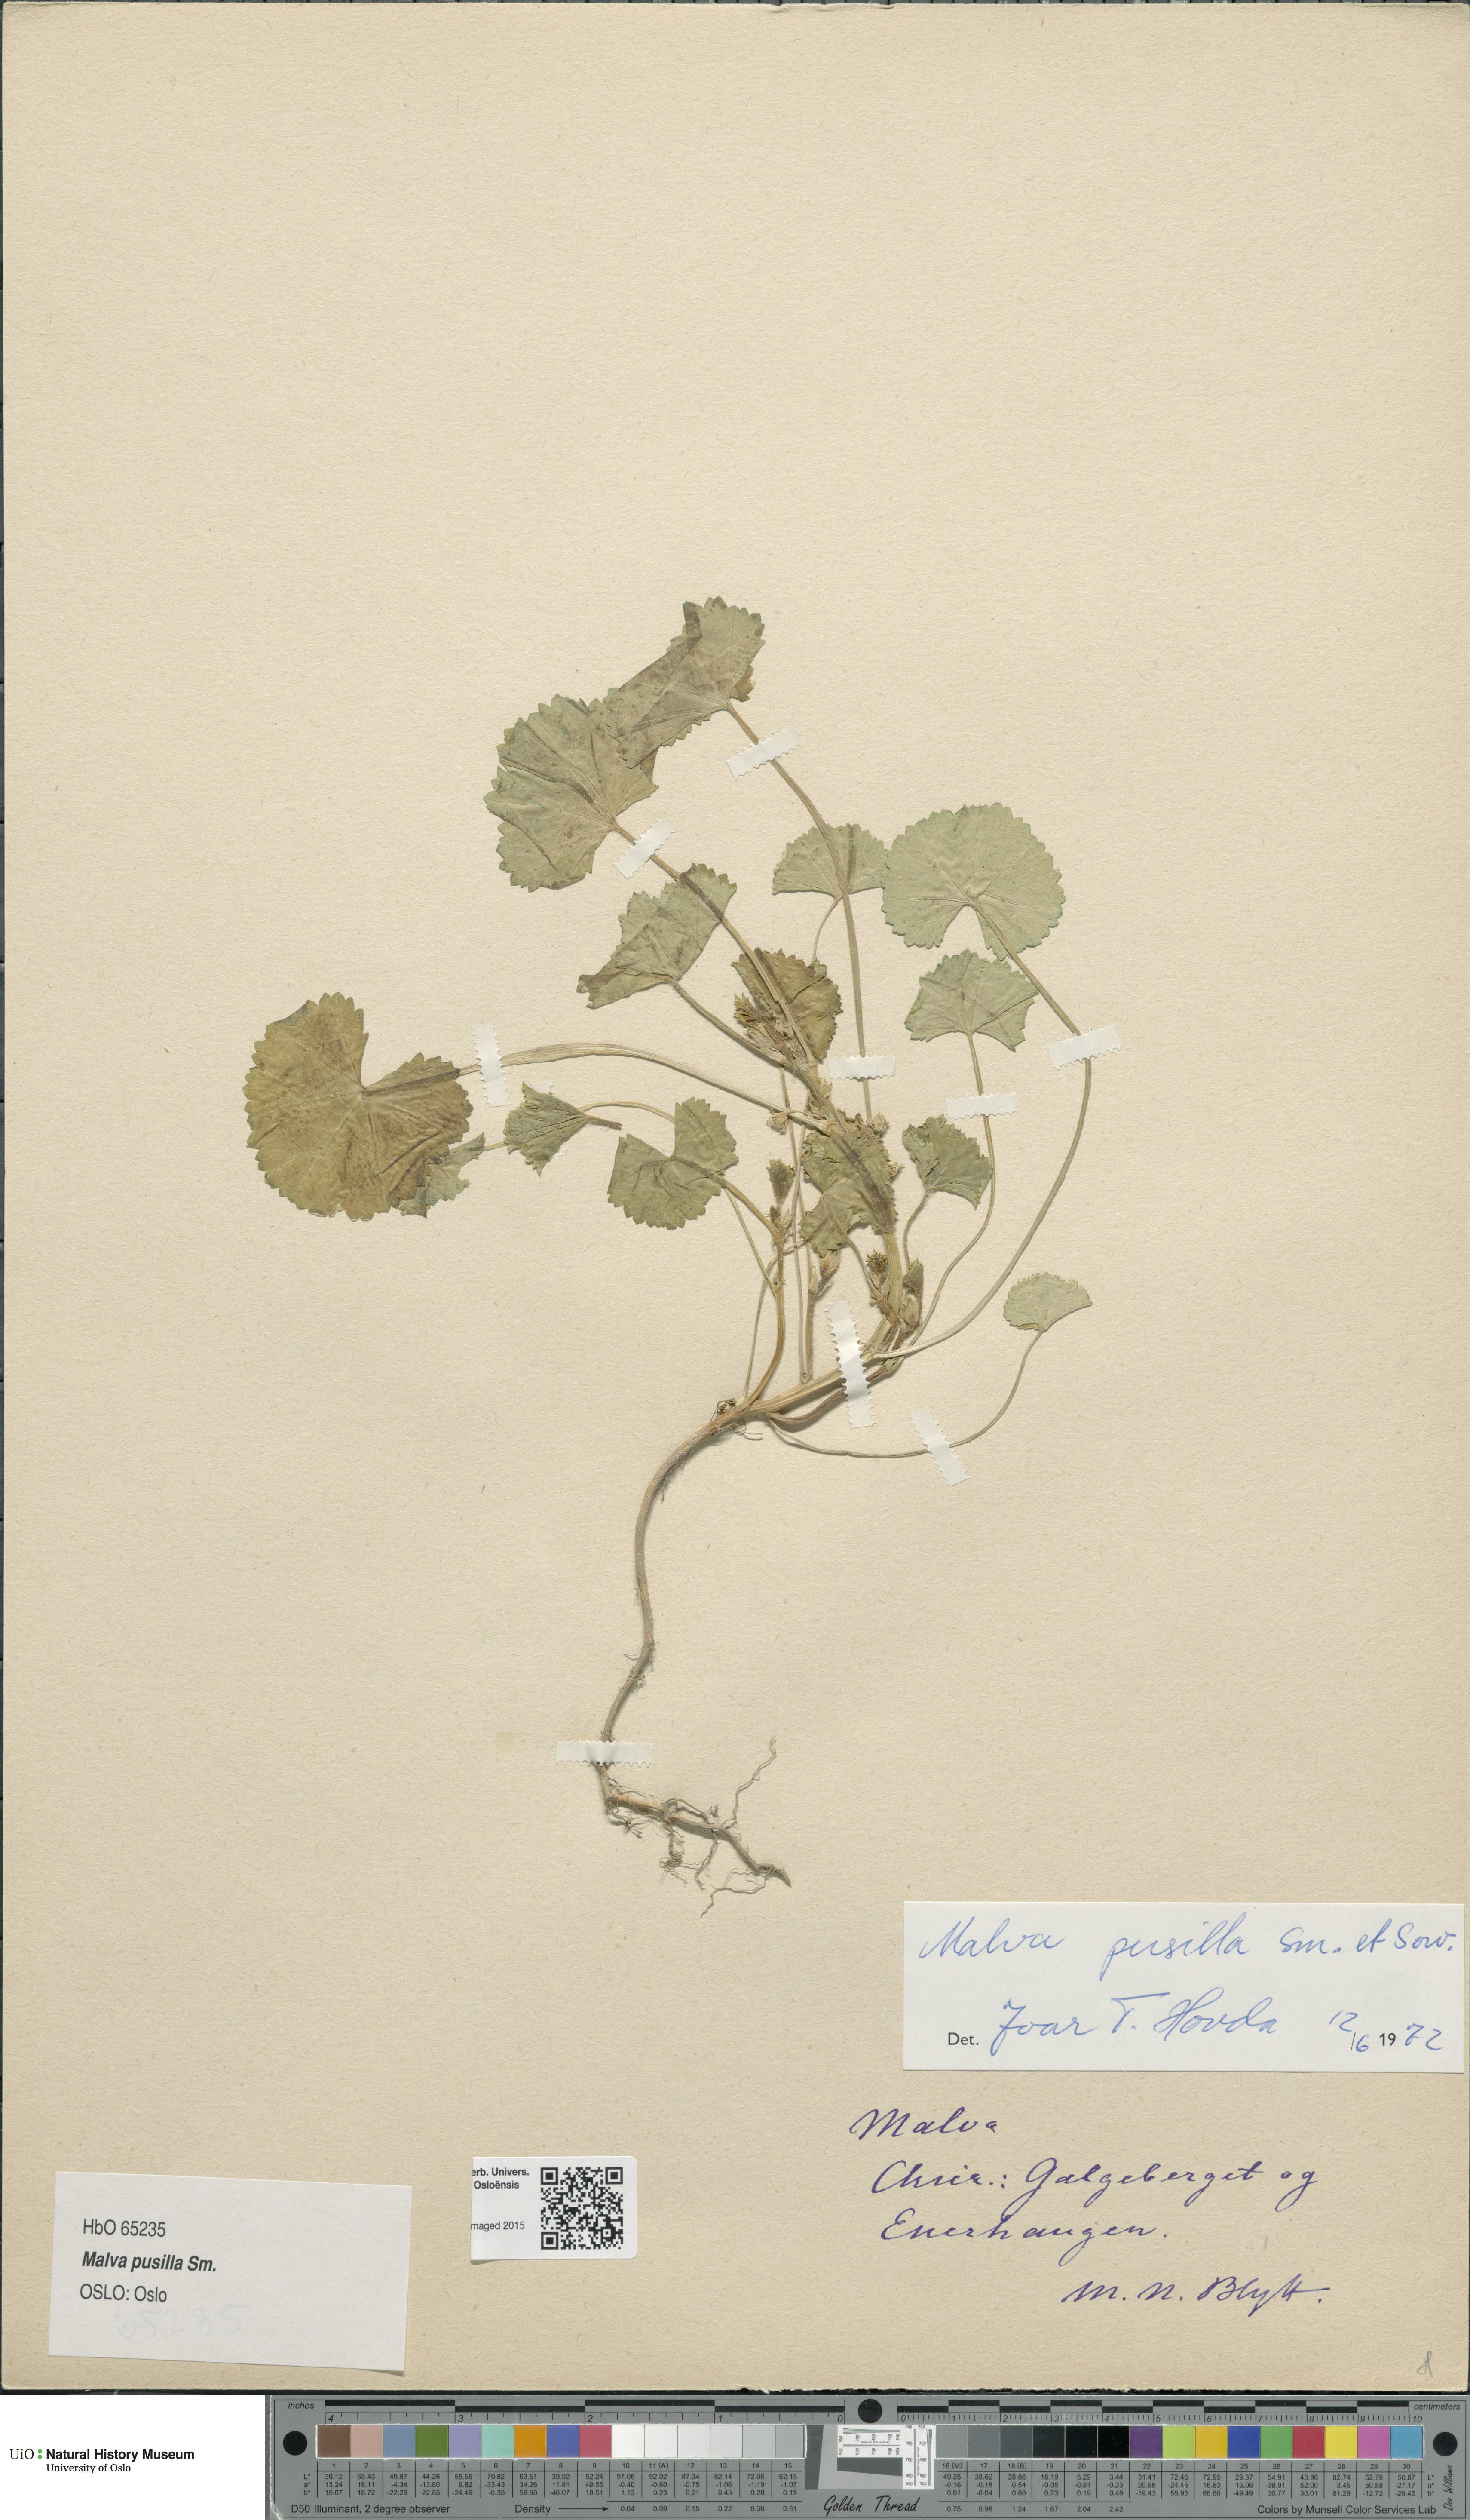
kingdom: Plantae
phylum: Tracheophyta
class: Magnoliopsida
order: Malvales
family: Malvaceae
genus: Malva
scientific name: Malva pusilla
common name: Small mallow
